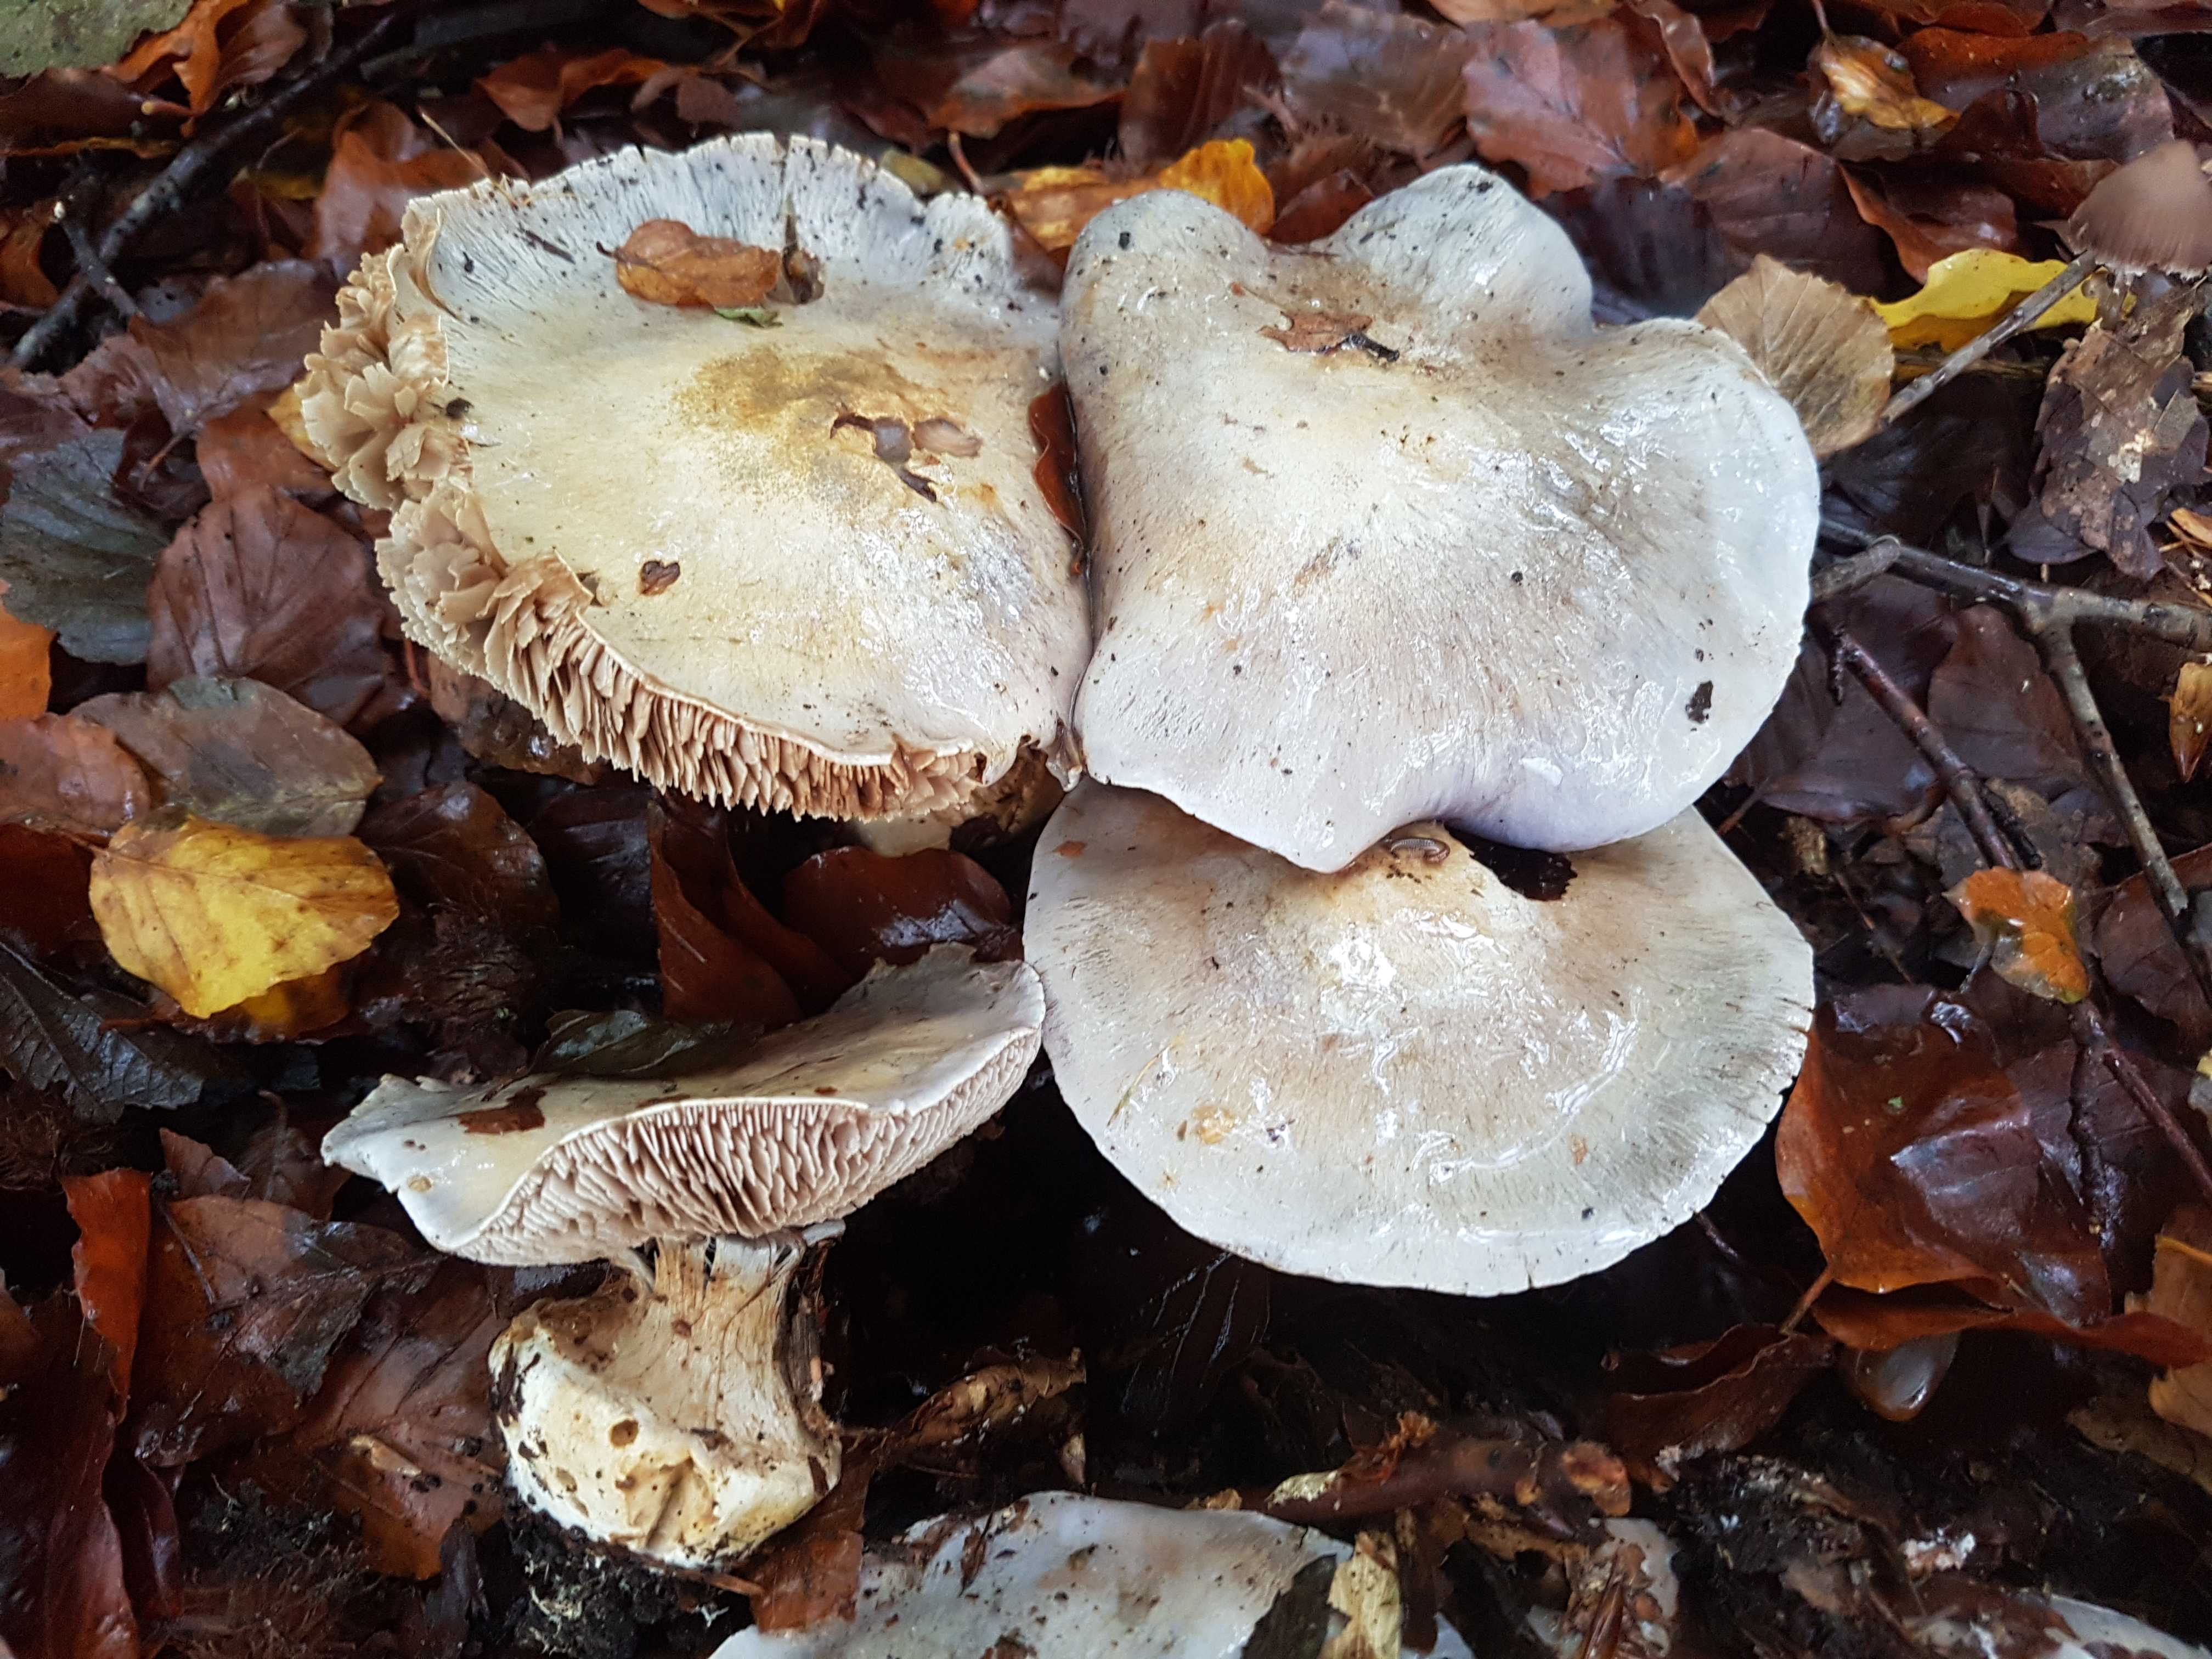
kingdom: Fungi
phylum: Basidiomycota
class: Agaricomycetes
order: Agaricales
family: Cortinariaceae
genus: Cortinarius
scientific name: Cortinarius caerulescens
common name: blåkødet slørhat
